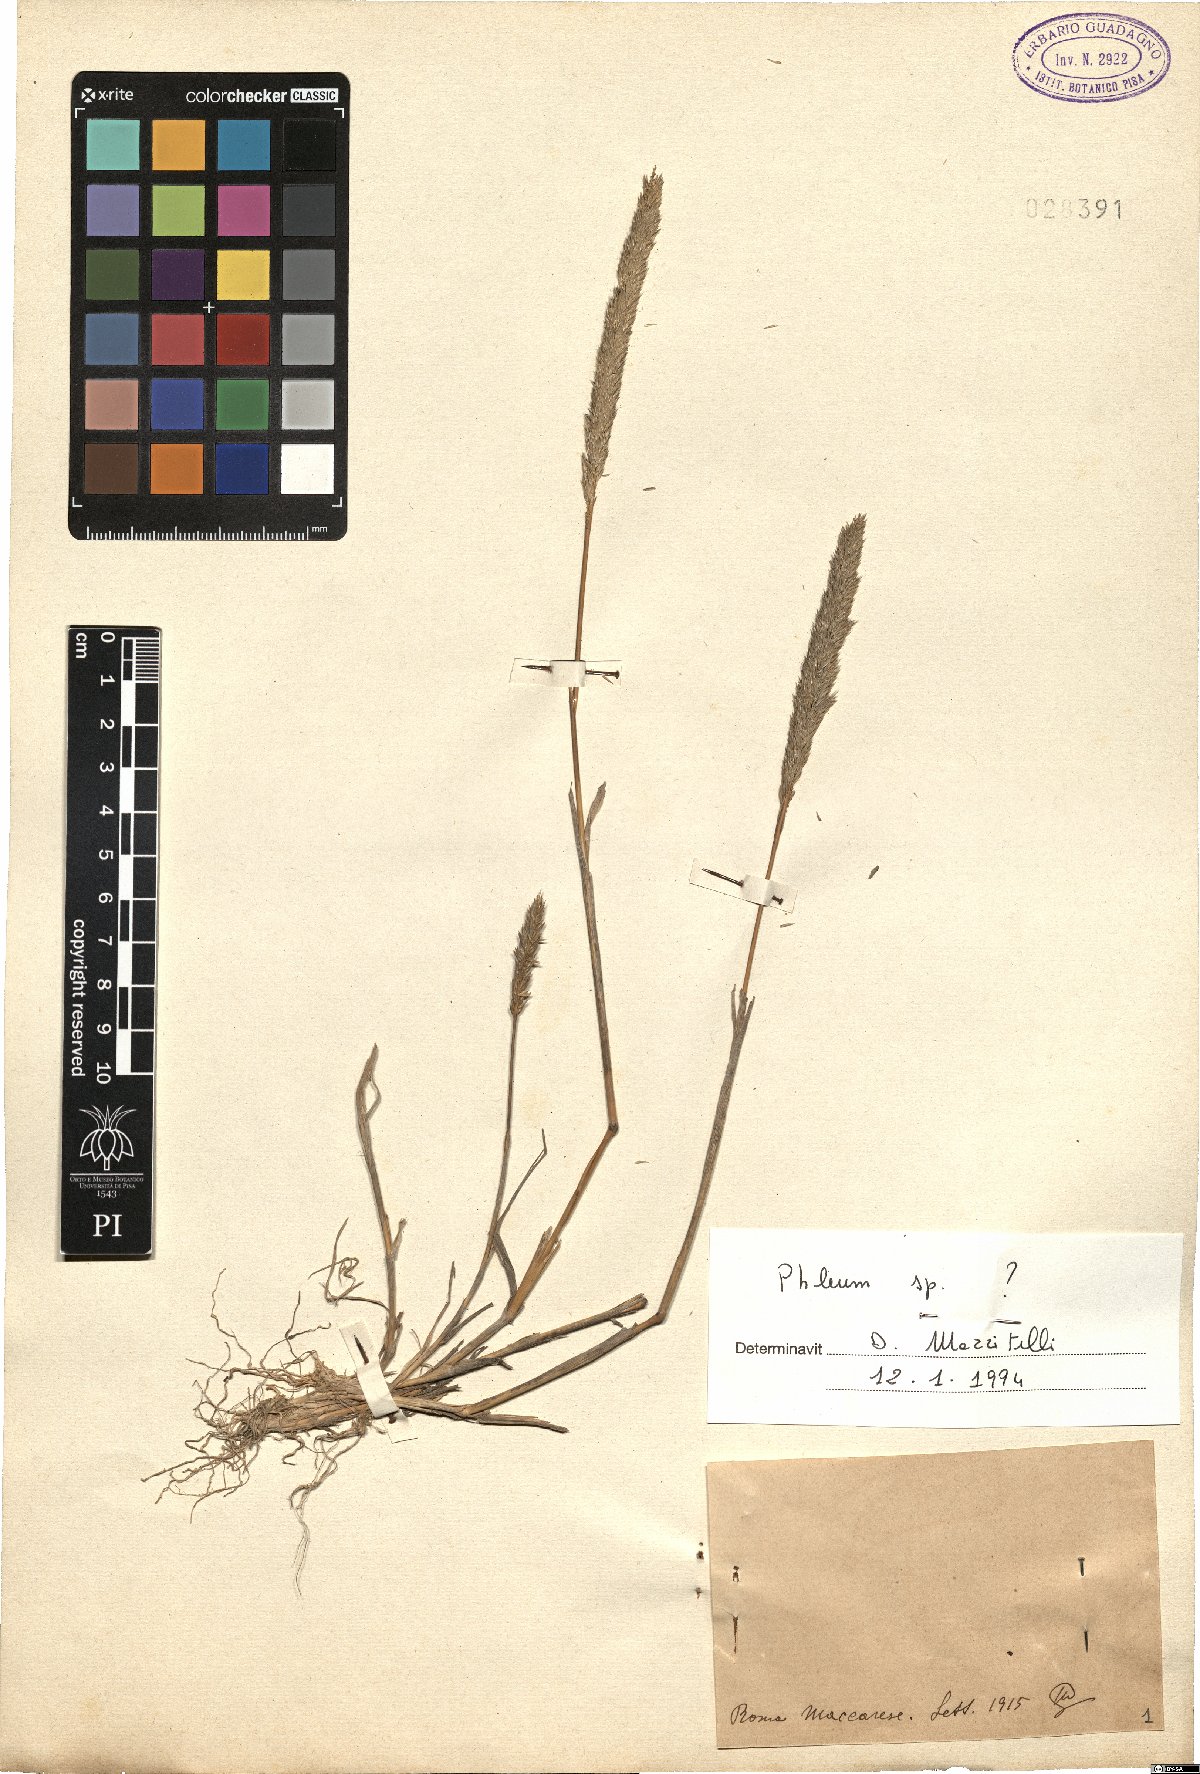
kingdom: Plantae
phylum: Tracheophyta
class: Liliopsida
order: Poales
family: Poaceae
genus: Phleum
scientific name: Phleum
